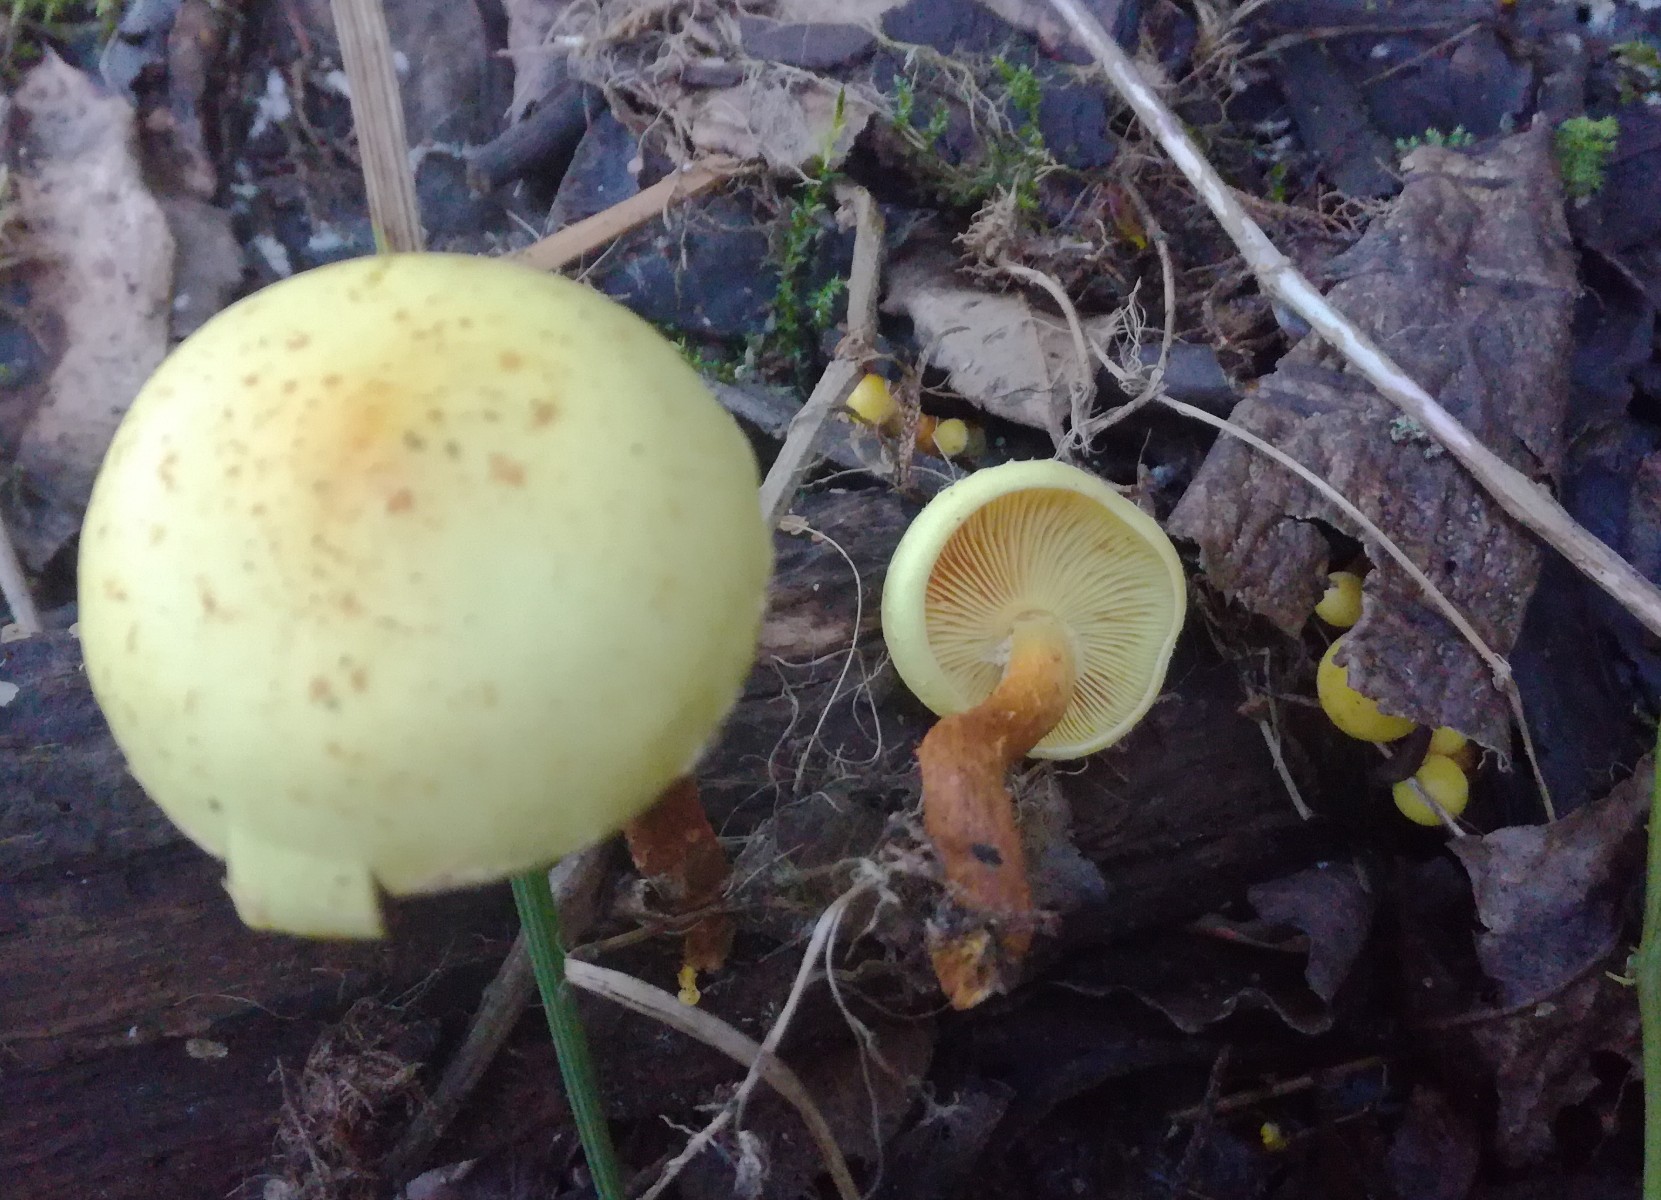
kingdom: Fungi
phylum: Basidiomycota
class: Agaricomycetes
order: Agaricales
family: Hymenogastraceae
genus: Flammula
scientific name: Flammula alnicola
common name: elle-skælhat
